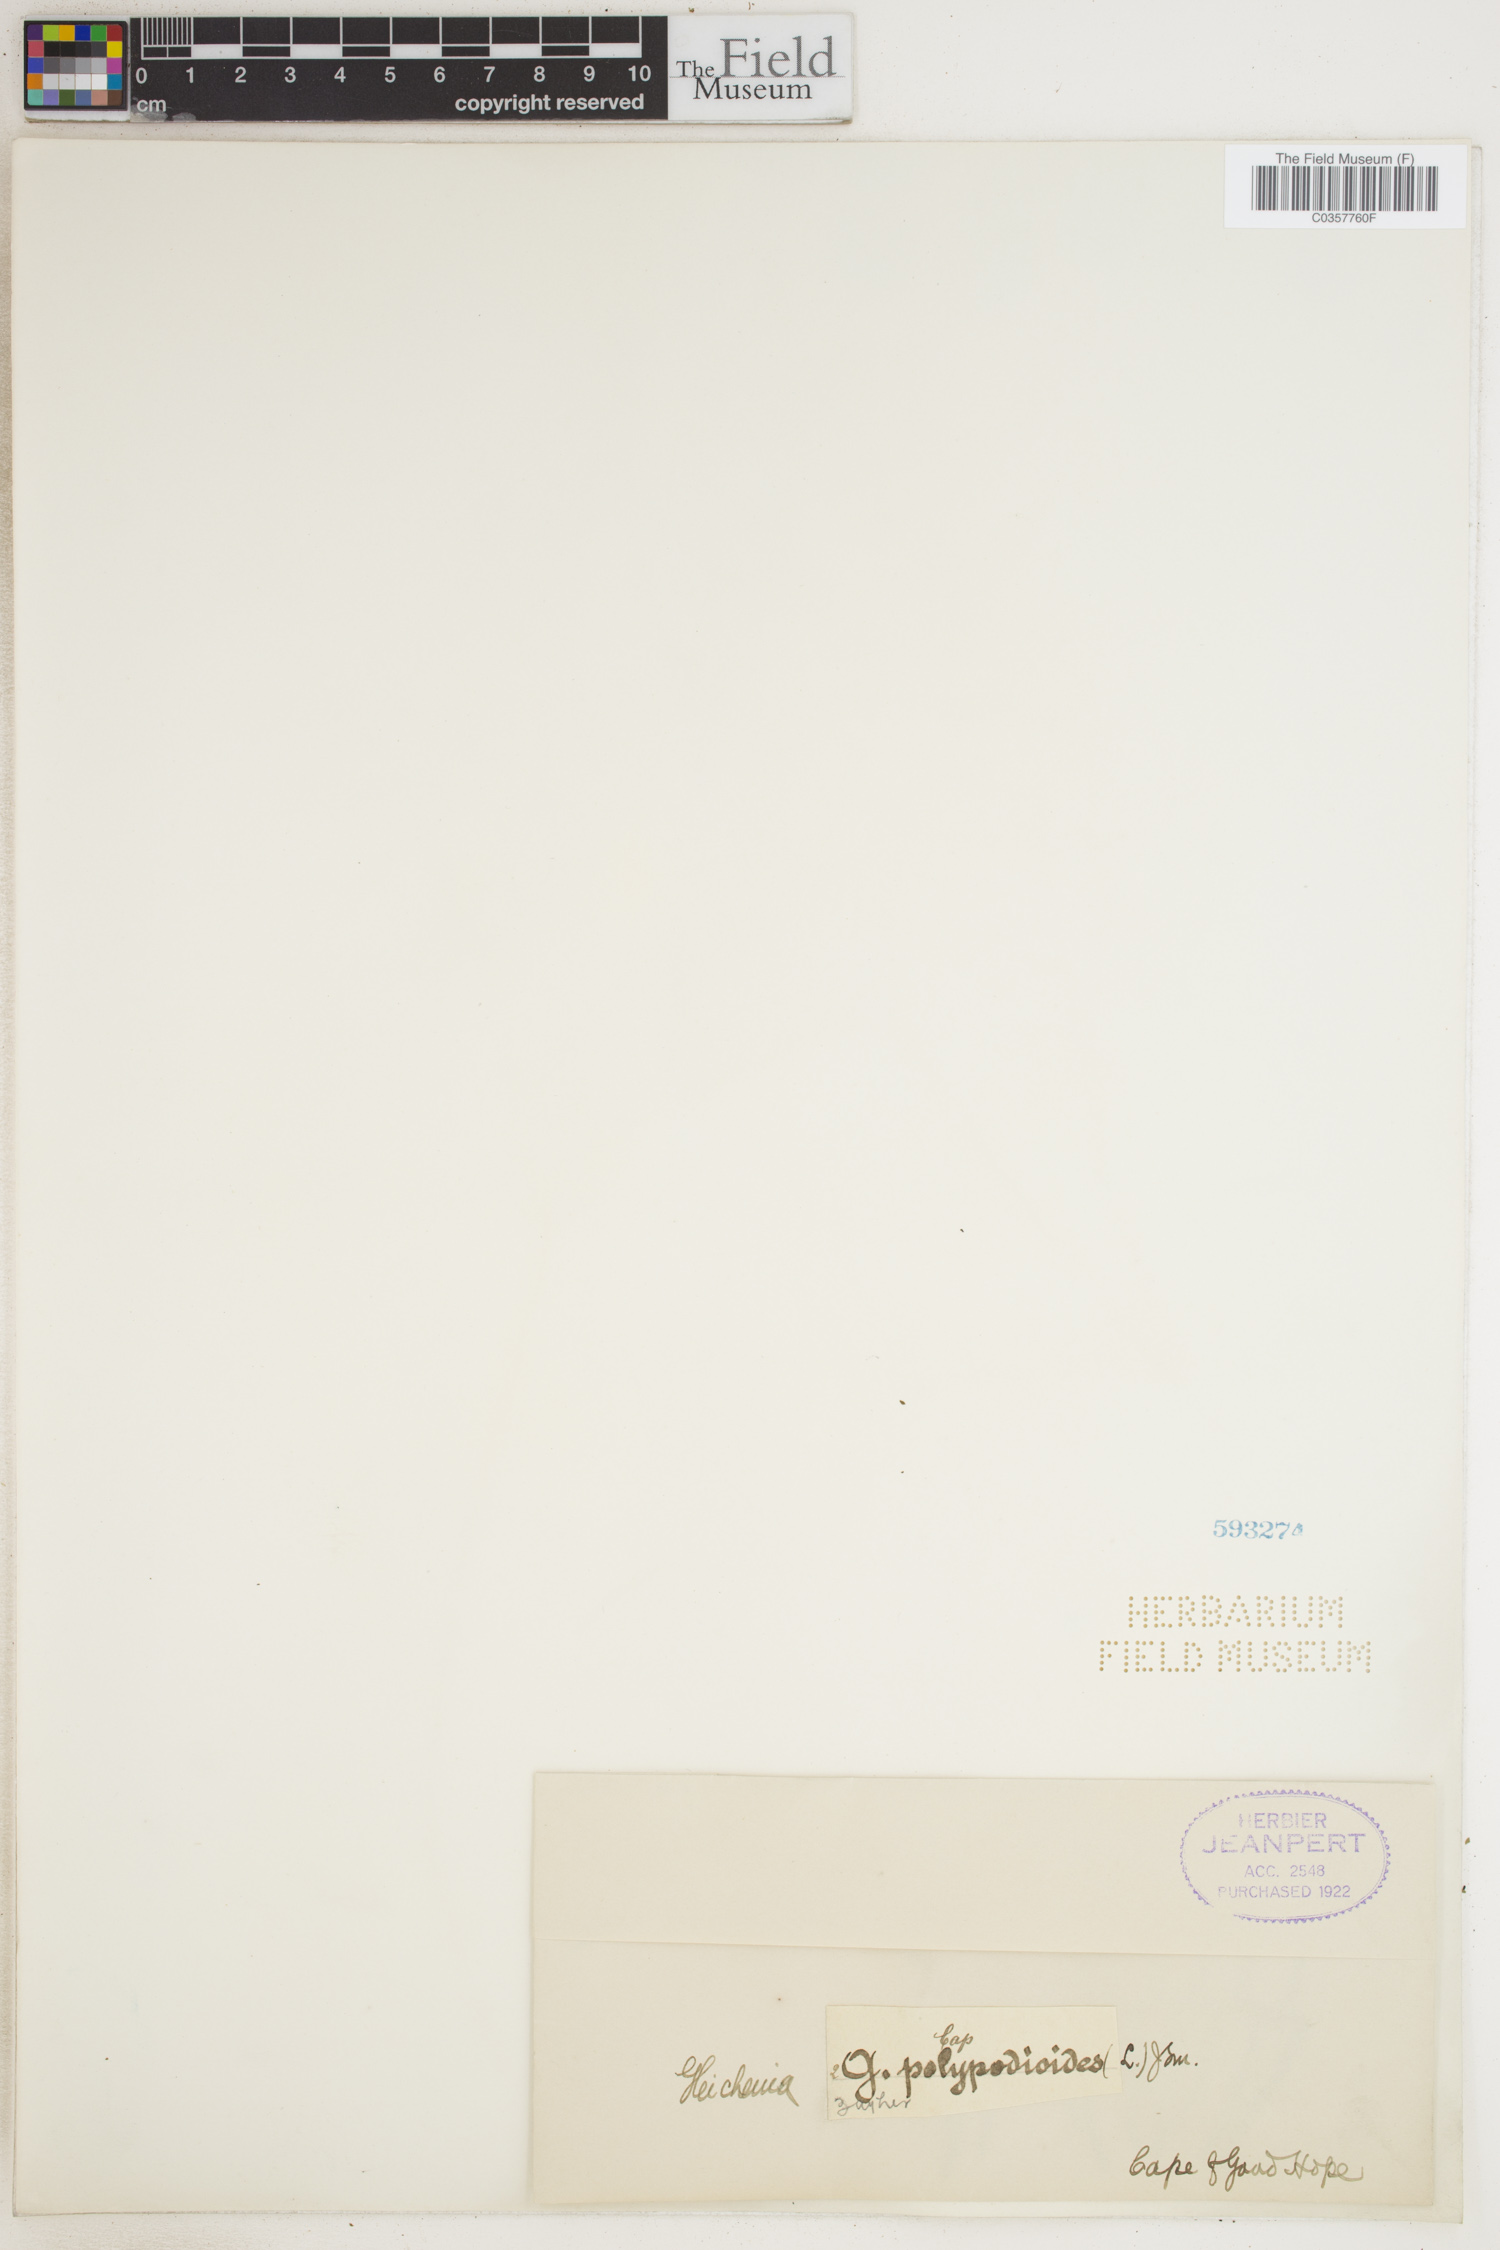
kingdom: Plantae
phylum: Tracheophyta
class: Polypodiopsida
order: Gleicheniales
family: Gleicheniaceae
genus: Gleichenia
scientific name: Gleichenia polypodioides
